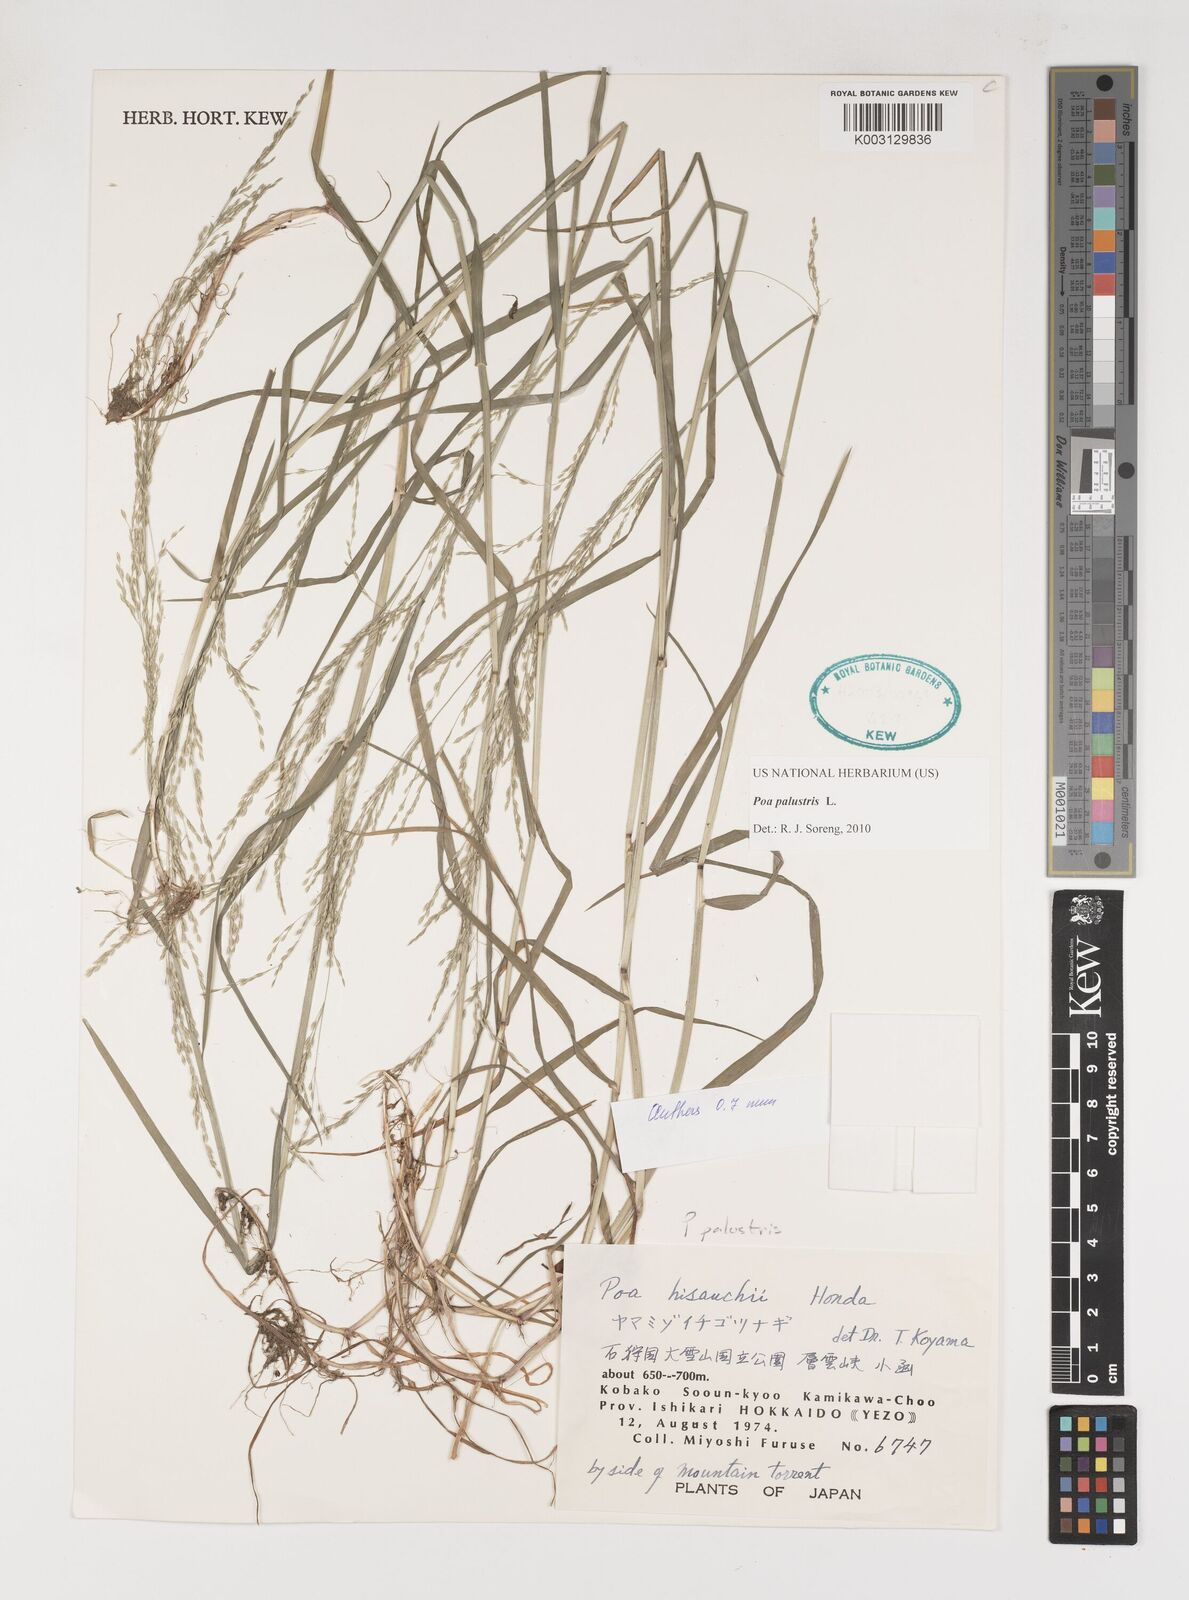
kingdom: Plantae
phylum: Tracheophyta
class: Liliopsida
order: Poales
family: Poaceae
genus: Poa
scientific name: Poa palustris
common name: Swamp meadow-grass
